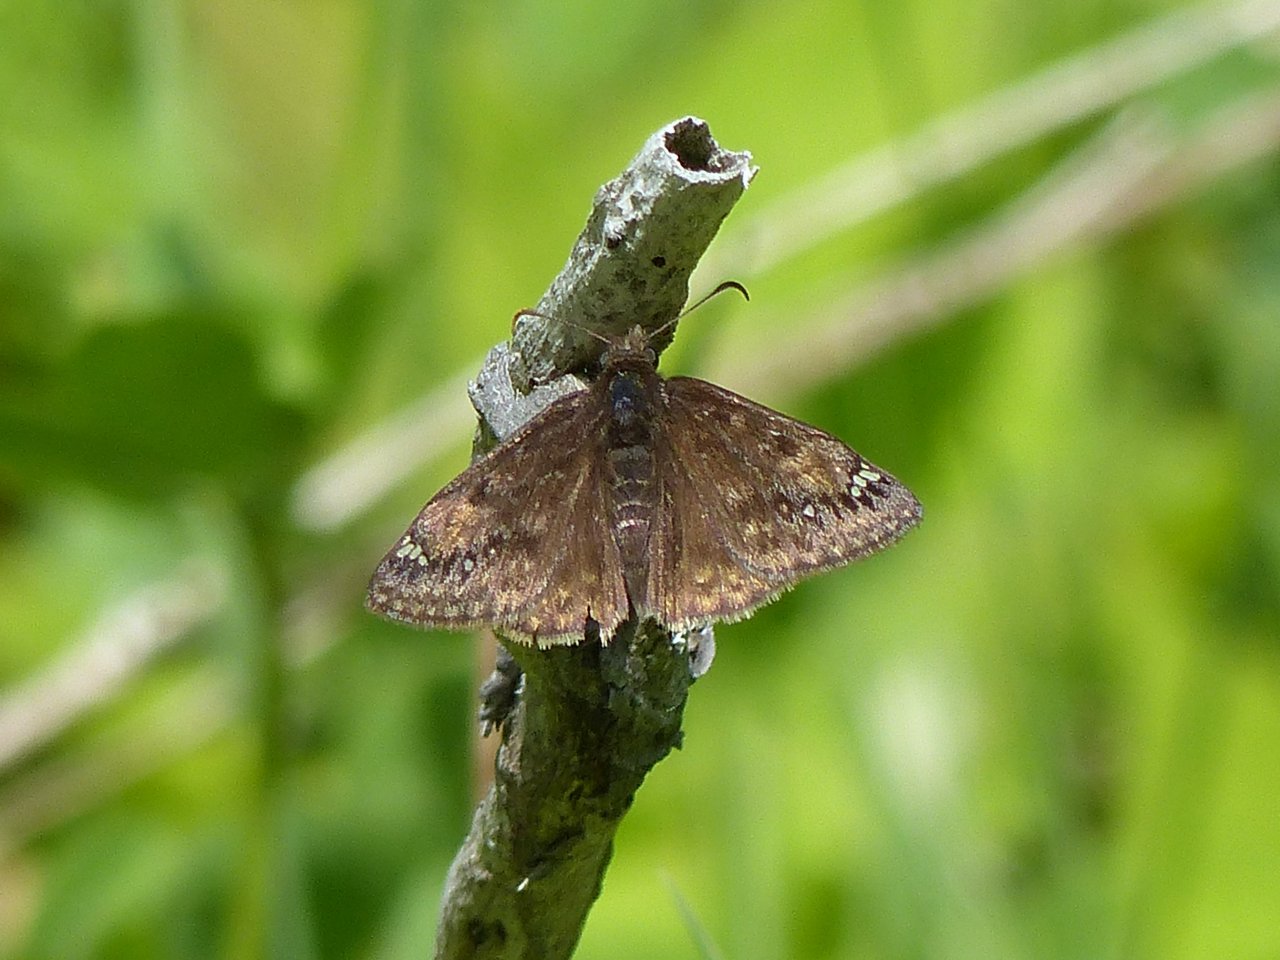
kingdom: Animalia
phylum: Arthropoda
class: Insecta
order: Lepidoptera
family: Hesperiidae
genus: Gesta
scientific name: Gesta
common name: Juvenal's Duskywing
